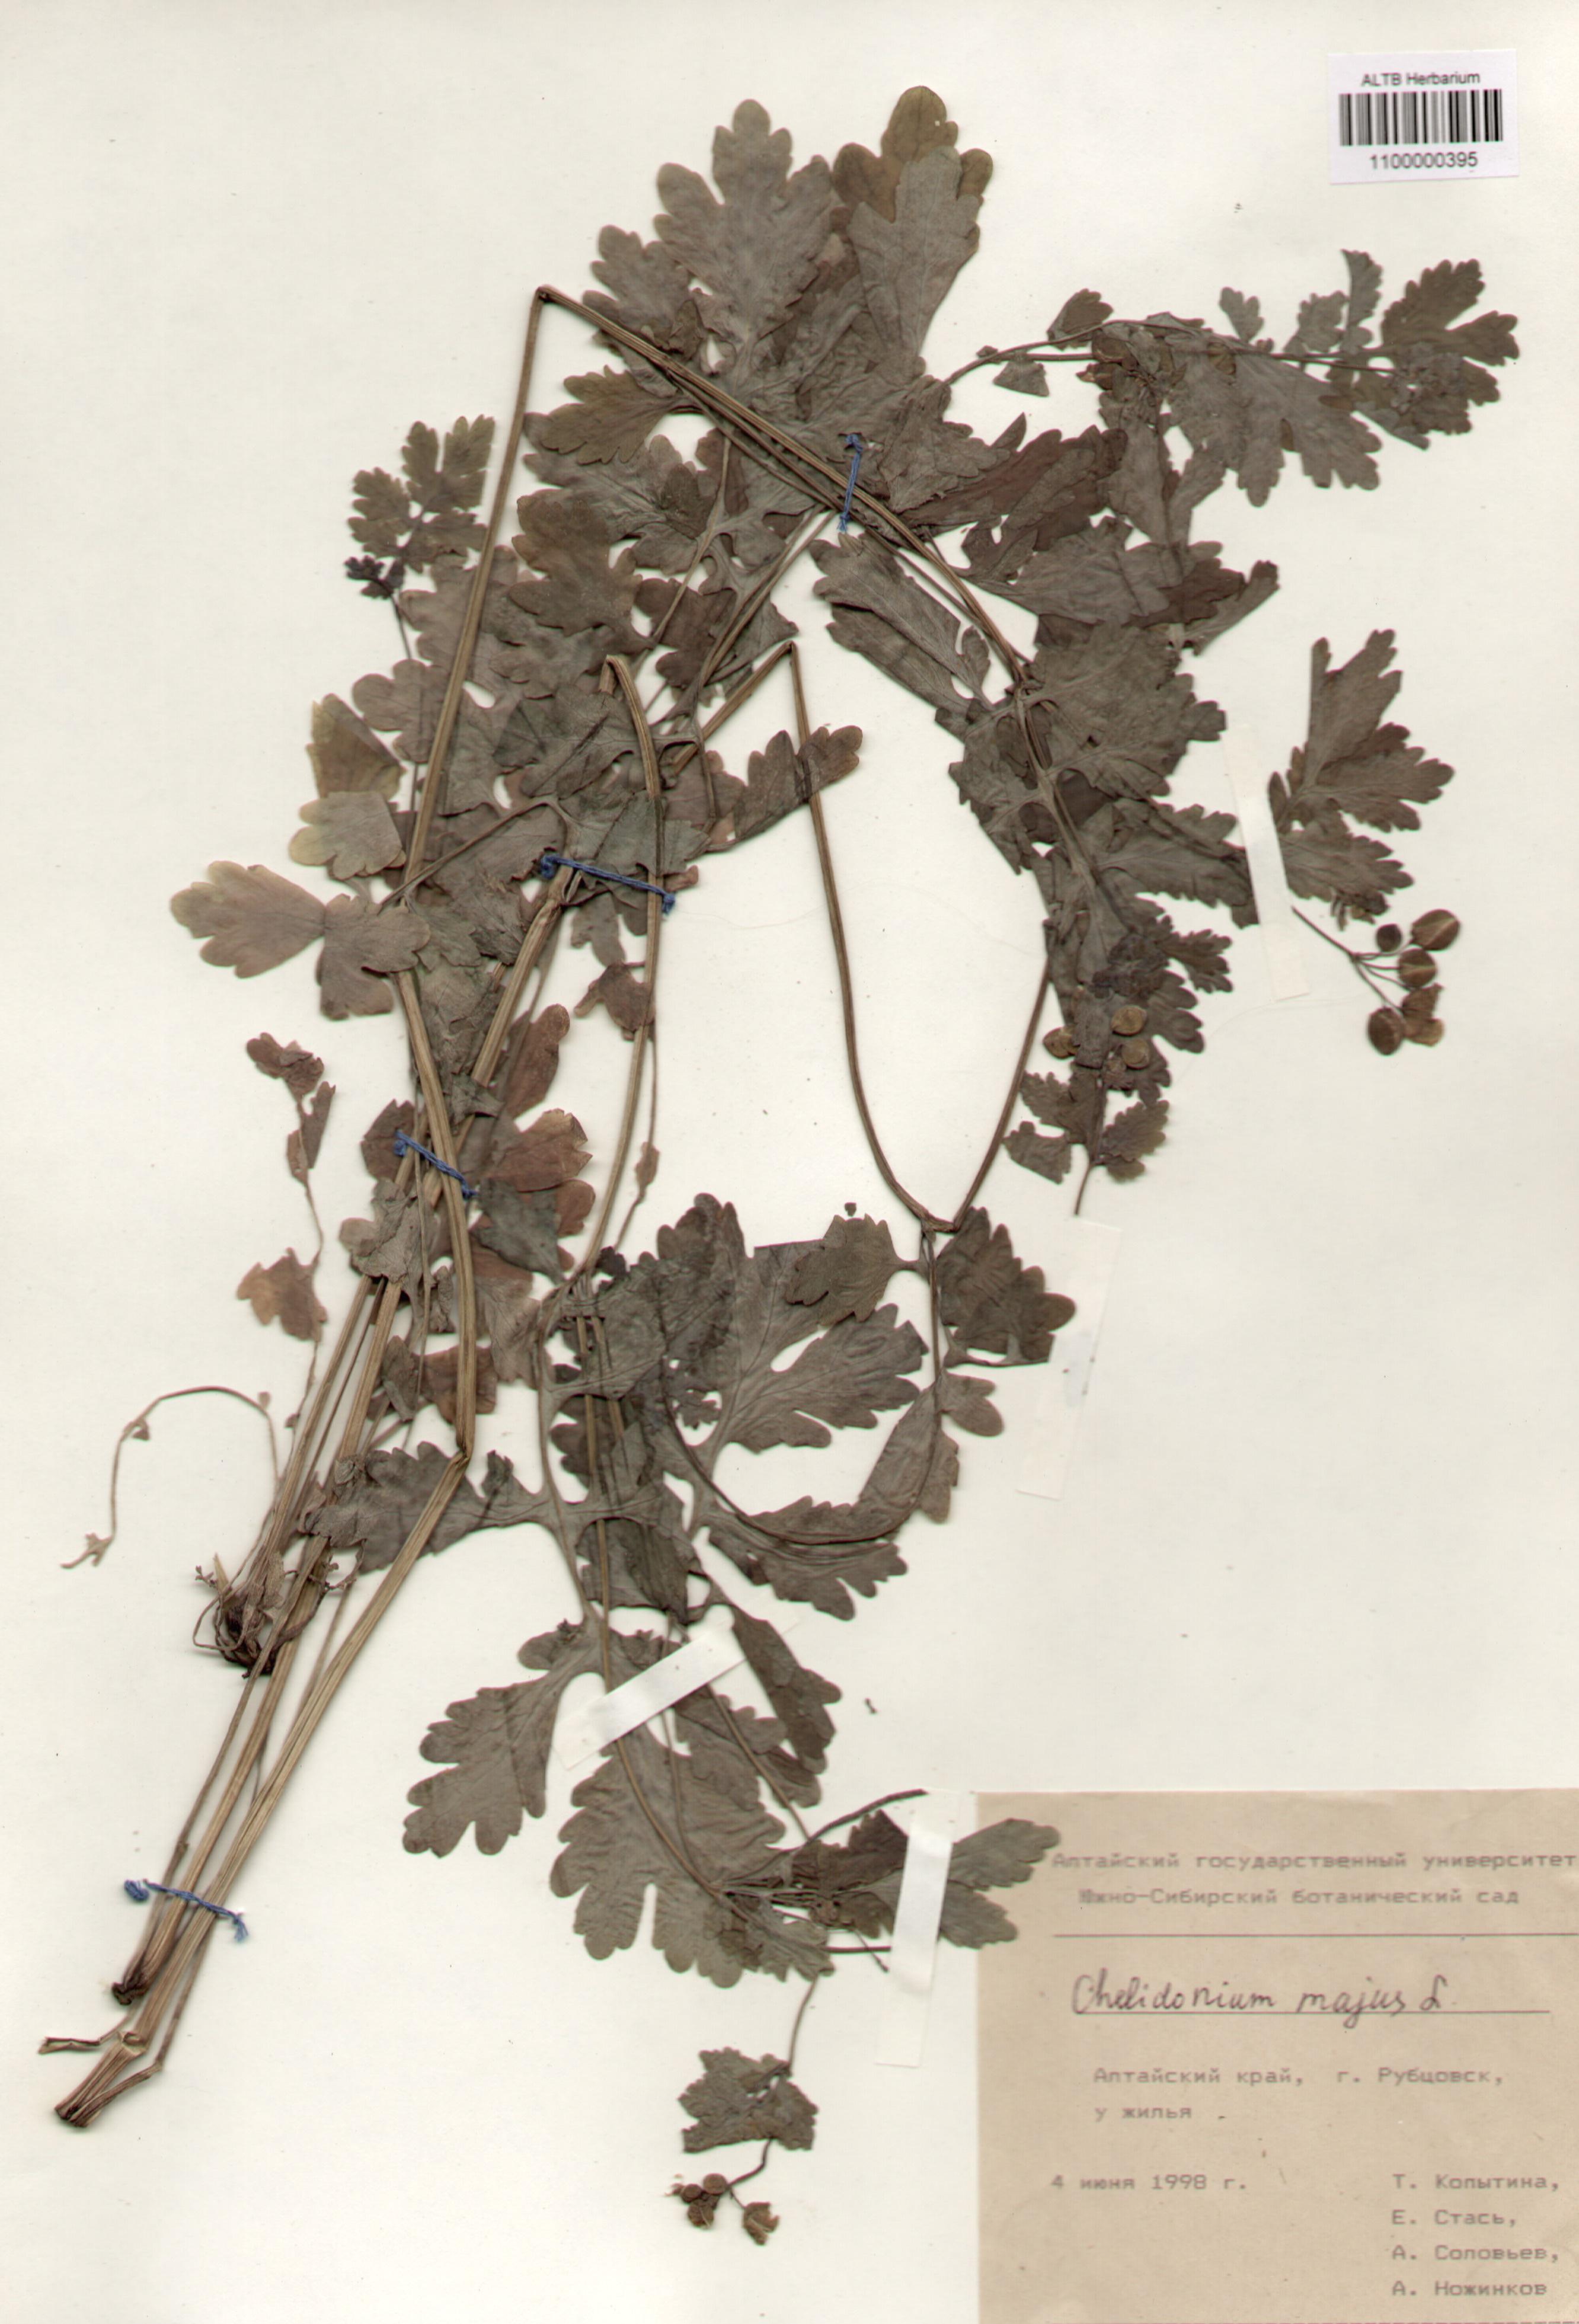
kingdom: Plantae
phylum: Tracheophyta
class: Magnoliopsida
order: Ranunculales
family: Papaveraceae
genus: Chelidonium
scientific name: Chelidonium majus
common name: Greater celandine
